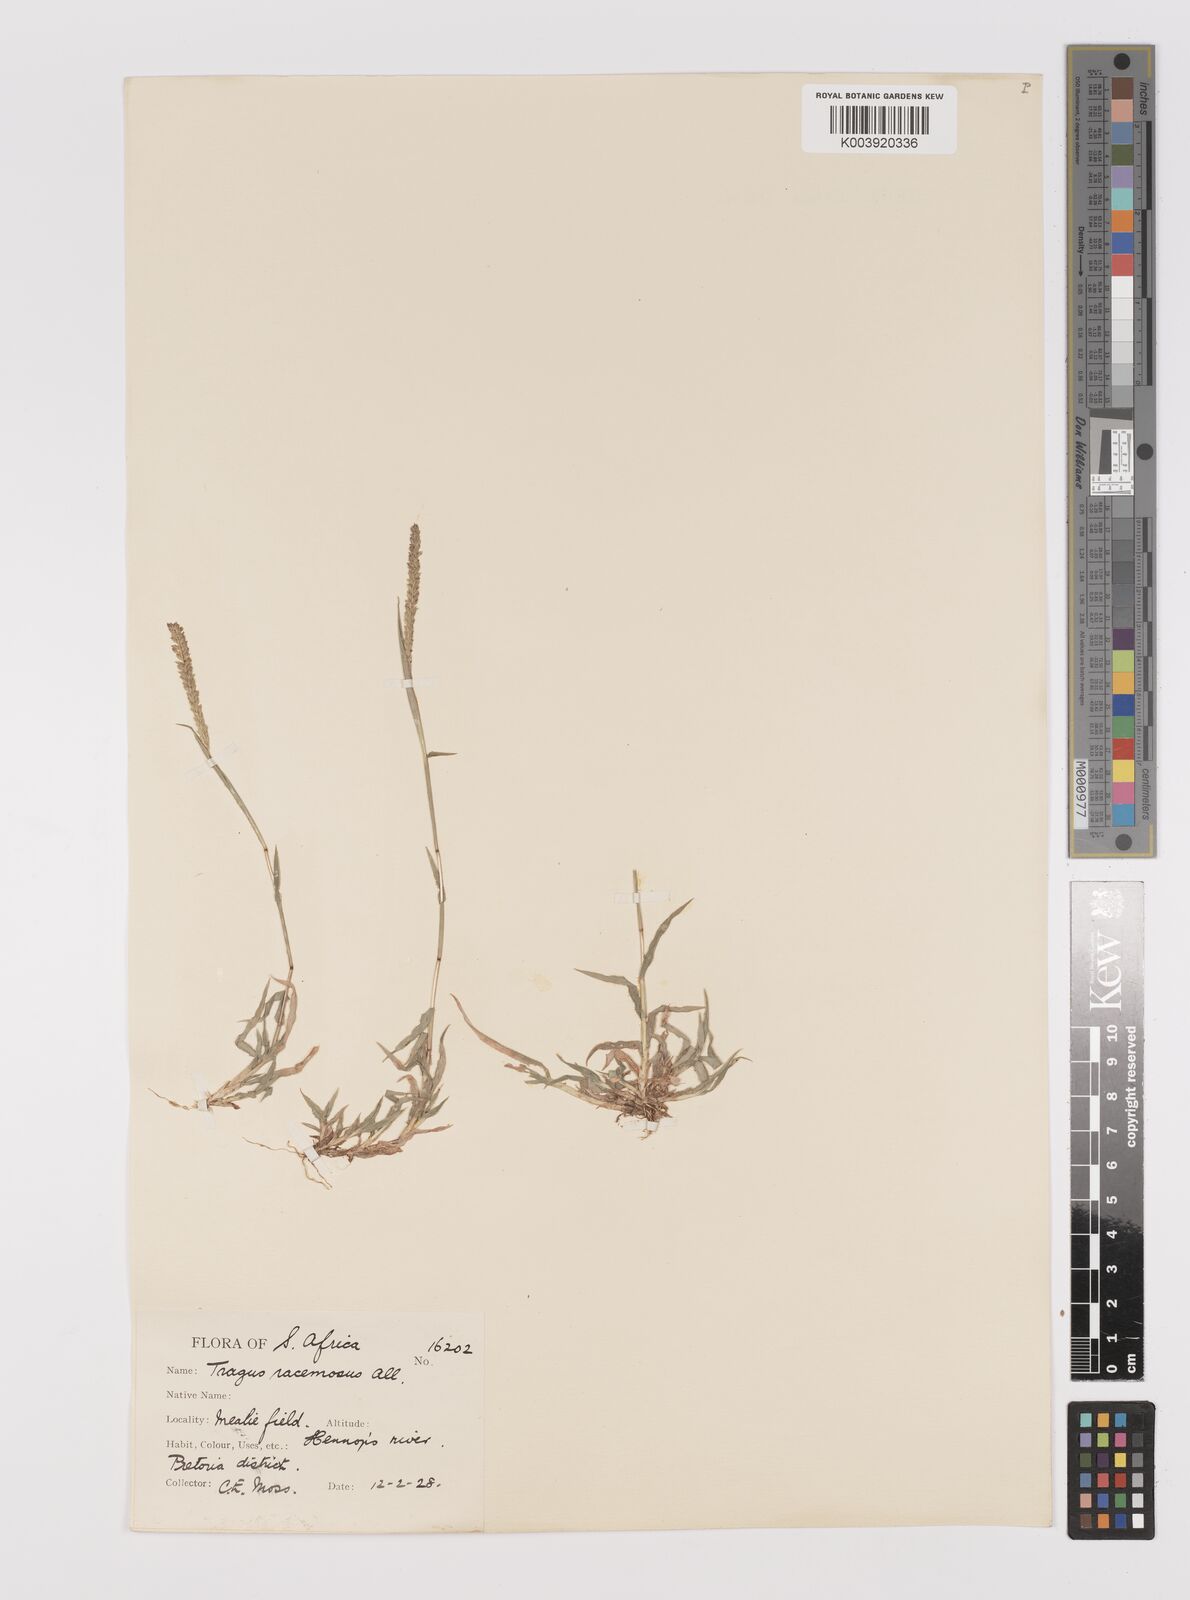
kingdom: Plantae
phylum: Tracheophyta
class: Liliopsida
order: Poales
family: Poaceae
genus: Tragus
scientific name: Tragus berteronianus
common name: African bur-grass
